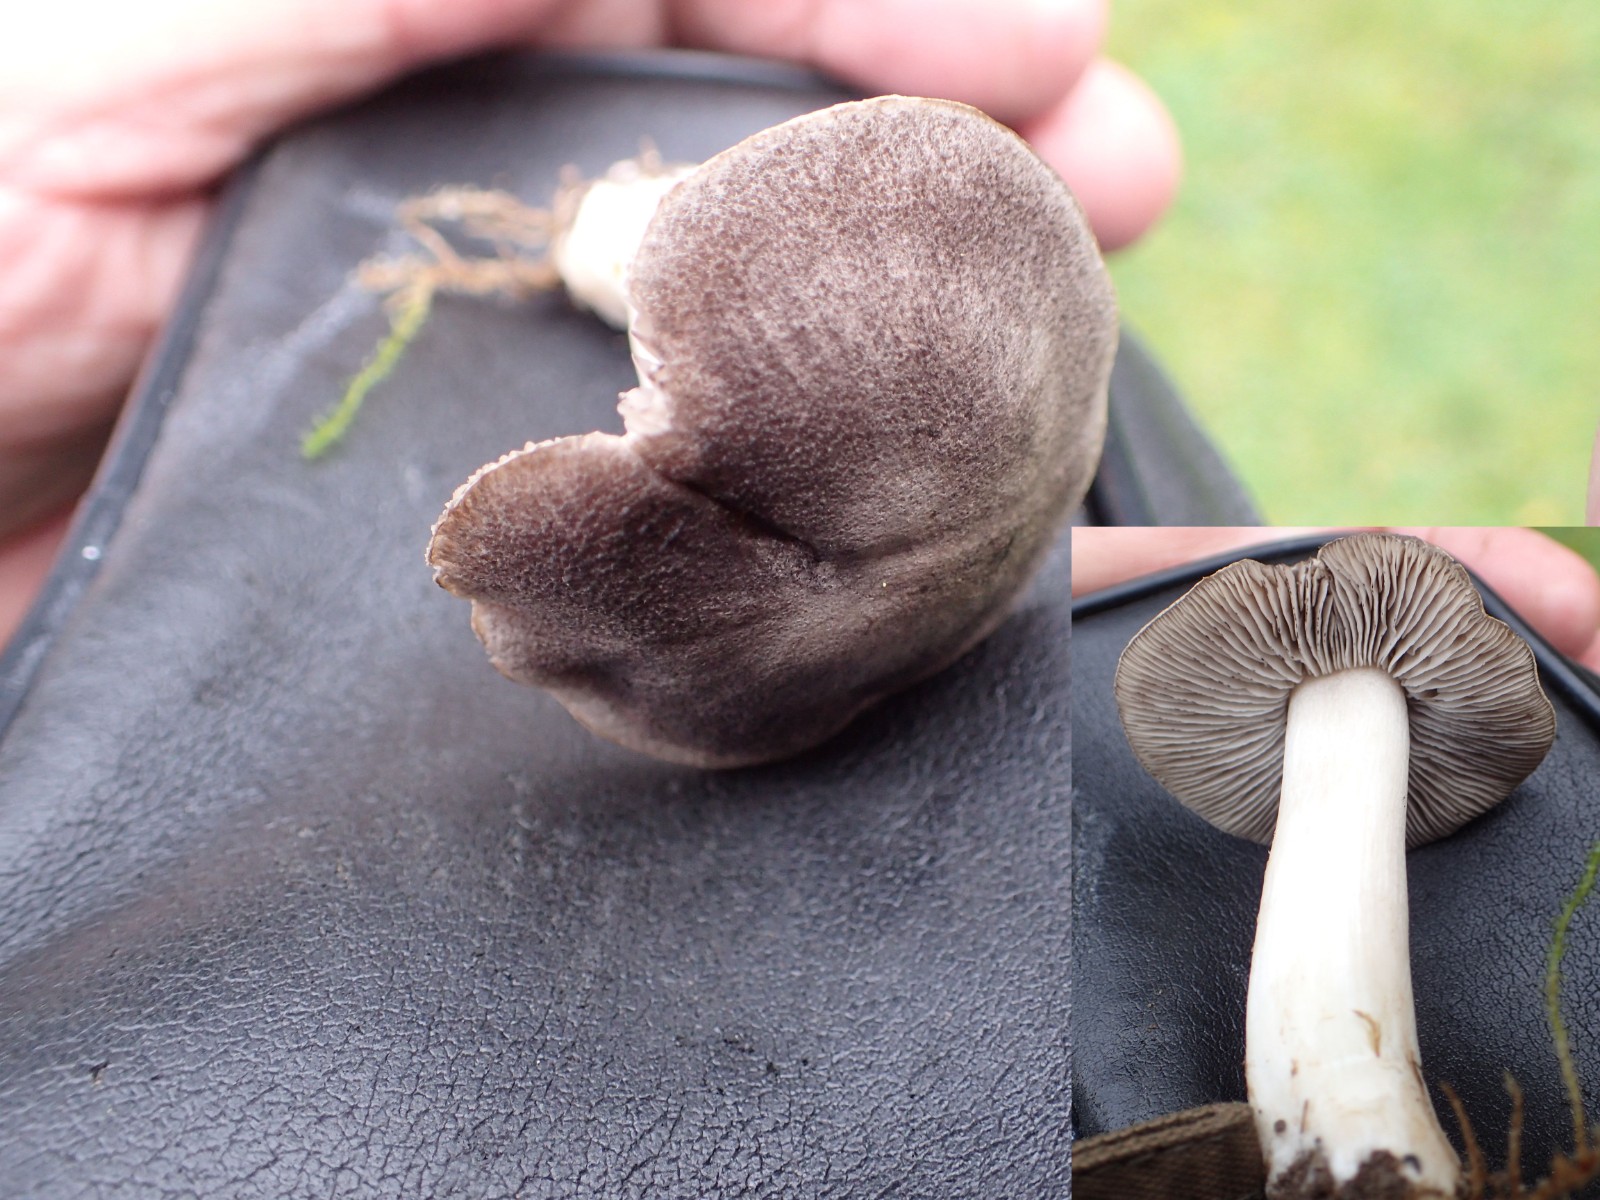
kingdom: Fungi
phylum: Basidiomycota
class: Agaricomycetes
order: Agaricales
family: Tricholomataceae
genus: Tricholoma
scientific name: Tricholoma terreum
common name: jordfarvet ridderhat
